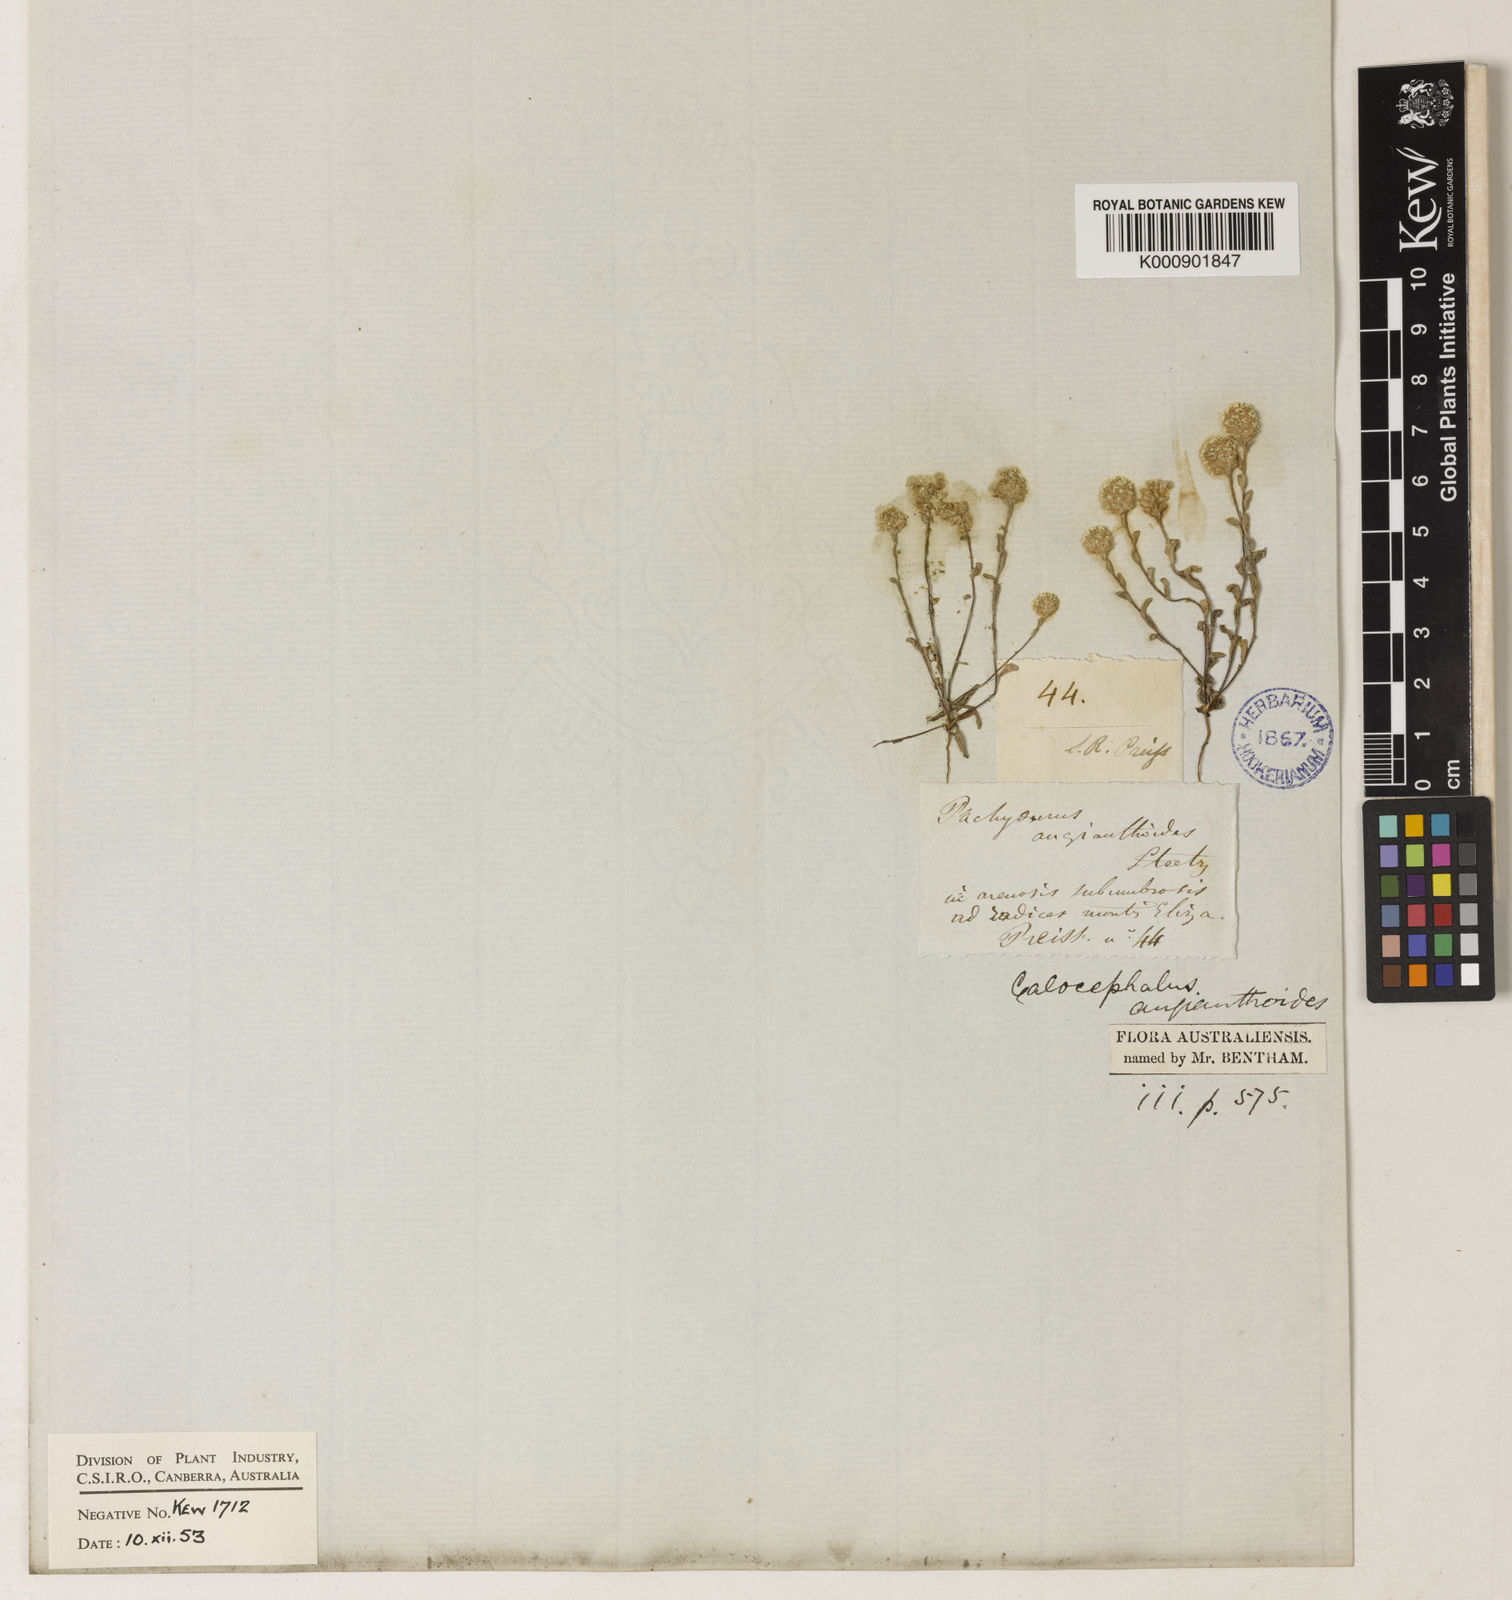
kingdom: Plantae
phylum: Tracheophyta
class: Magnoliopsida
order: Asterales
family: Asteraceae
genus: Gnephosis
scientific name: Gnephosis angianthoides
